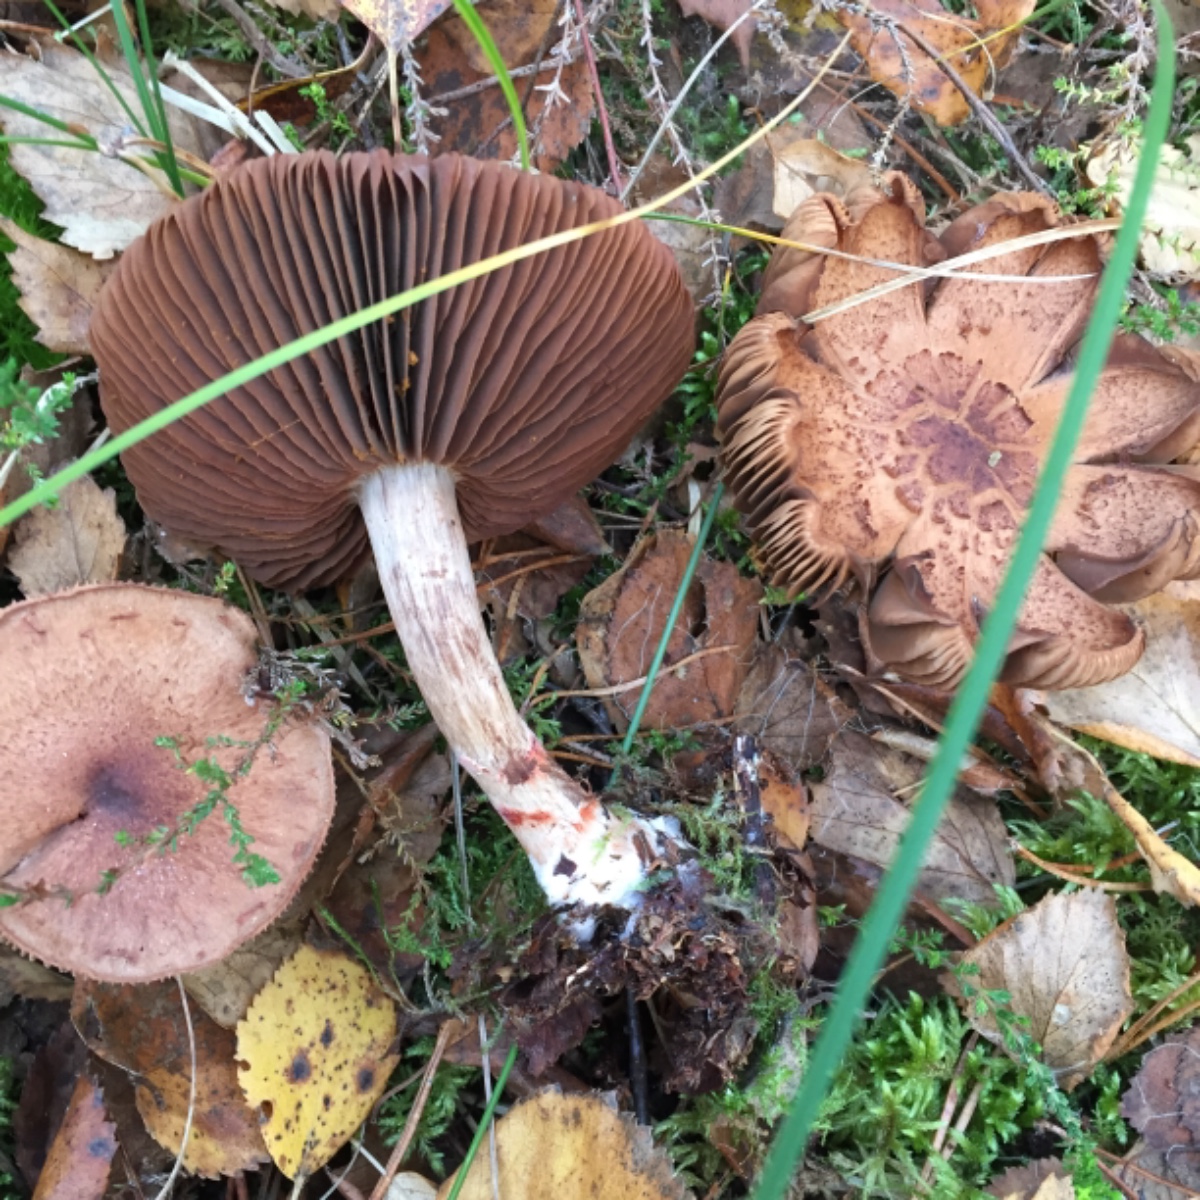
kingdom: Fungi
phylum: Basidiomycota
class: Agaricomycetes
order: Agaricales
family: Cortinariaceae
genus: Cortinarius
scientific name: Cortinarius armillatus
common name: cinnoberbæltet slørhat
